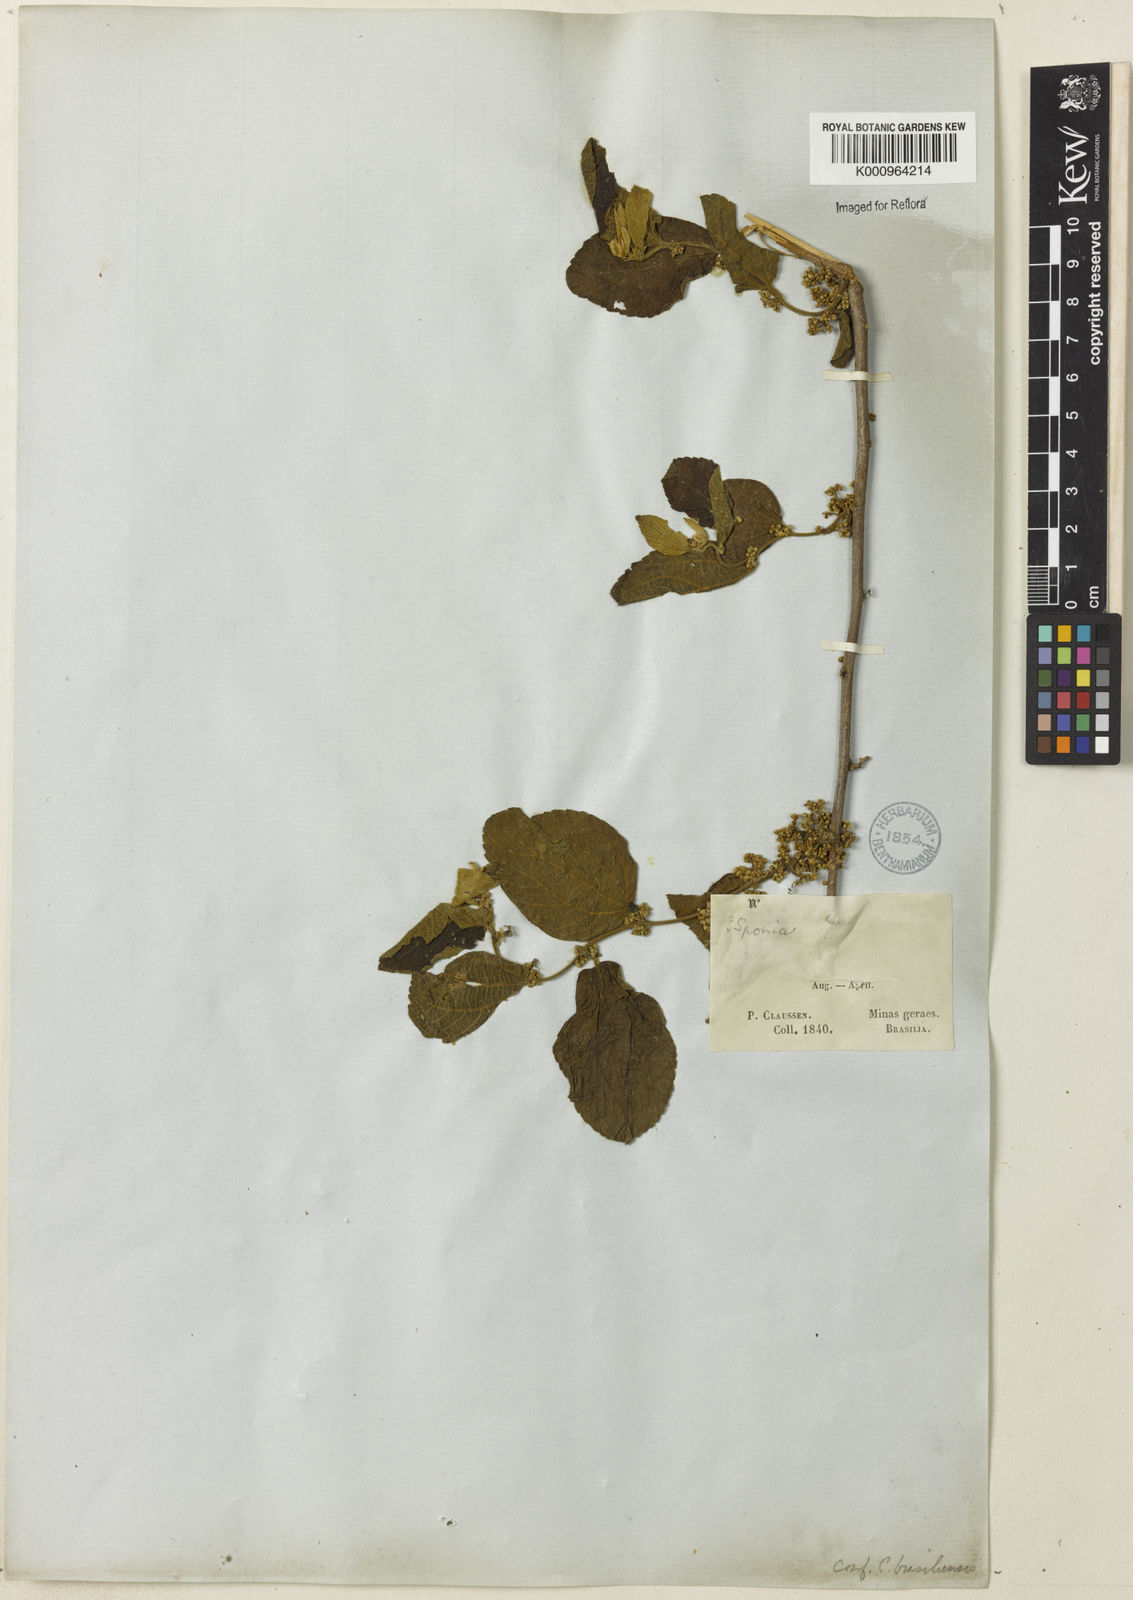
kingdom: Plantae
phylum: Tracheophyta
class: Magnoliopsida
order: Rosales
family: Cannabaceae
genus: Celtis
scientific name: Celtis brasiliensis
